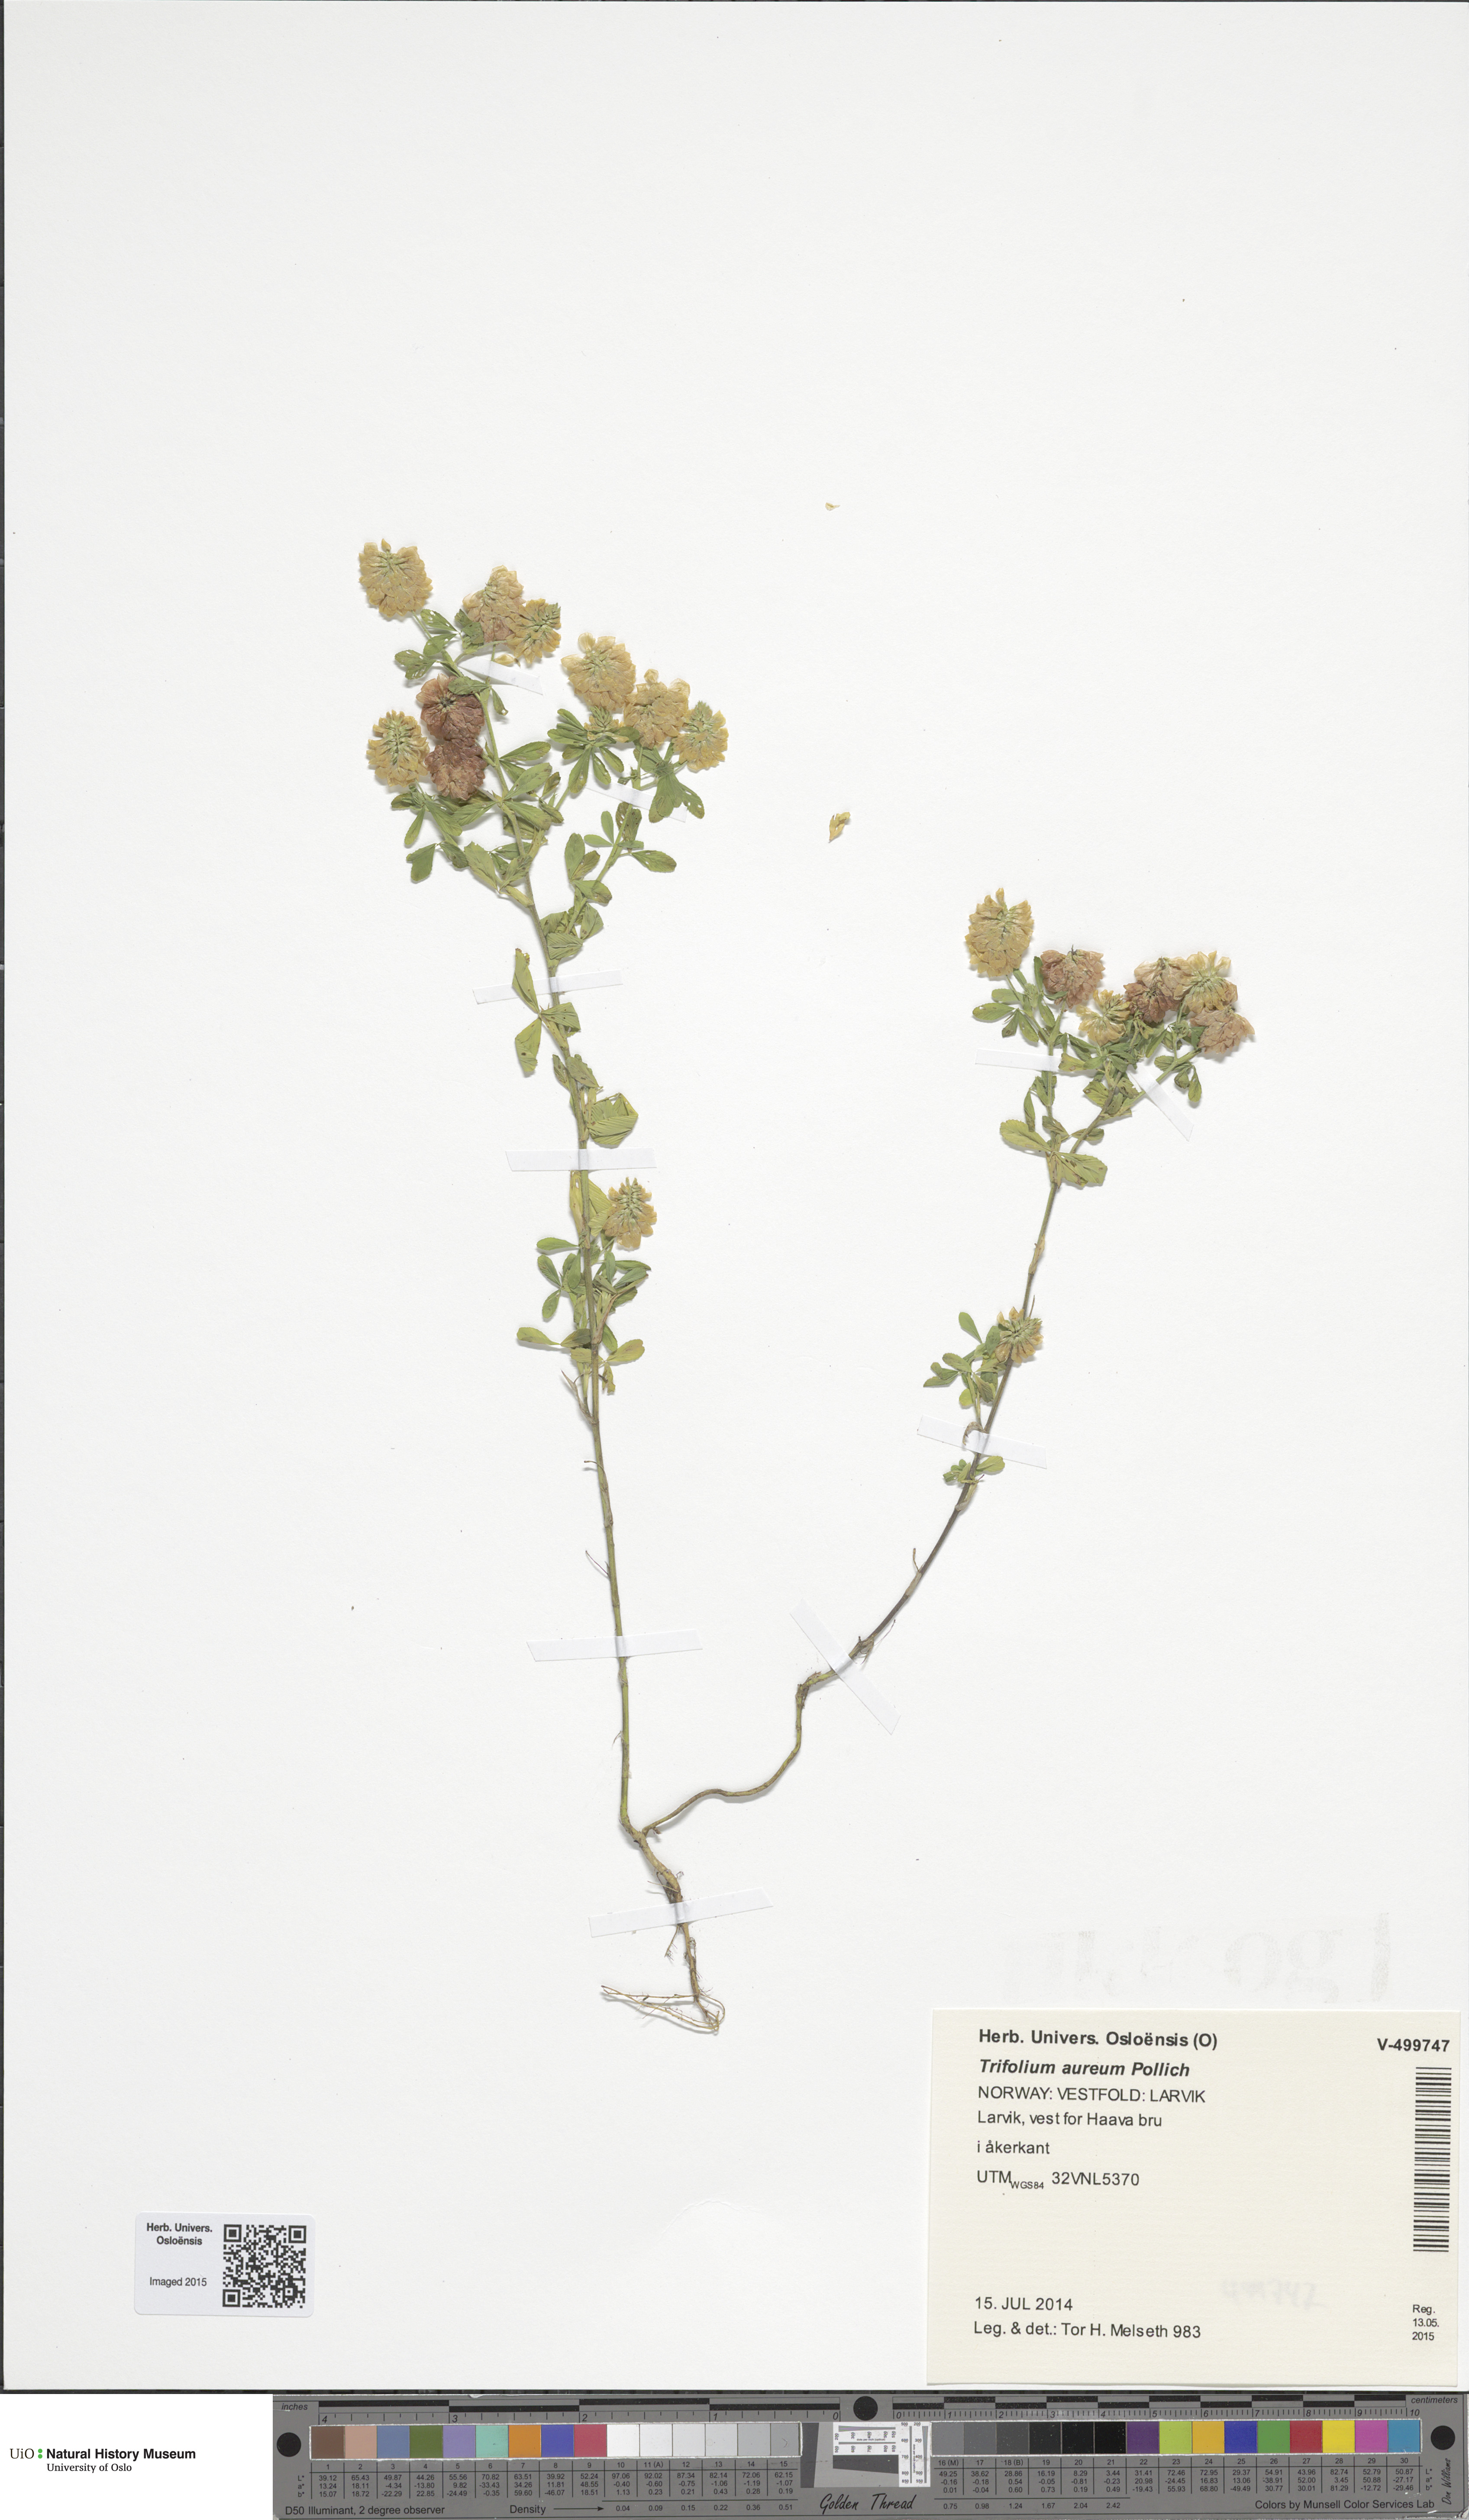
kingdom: Plantae
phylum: Tracheophyta
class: Magnoliopsida
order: Fabales
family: Fabaceae
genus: Trifolium
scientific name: Trifolium aureum
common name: Golden clover
